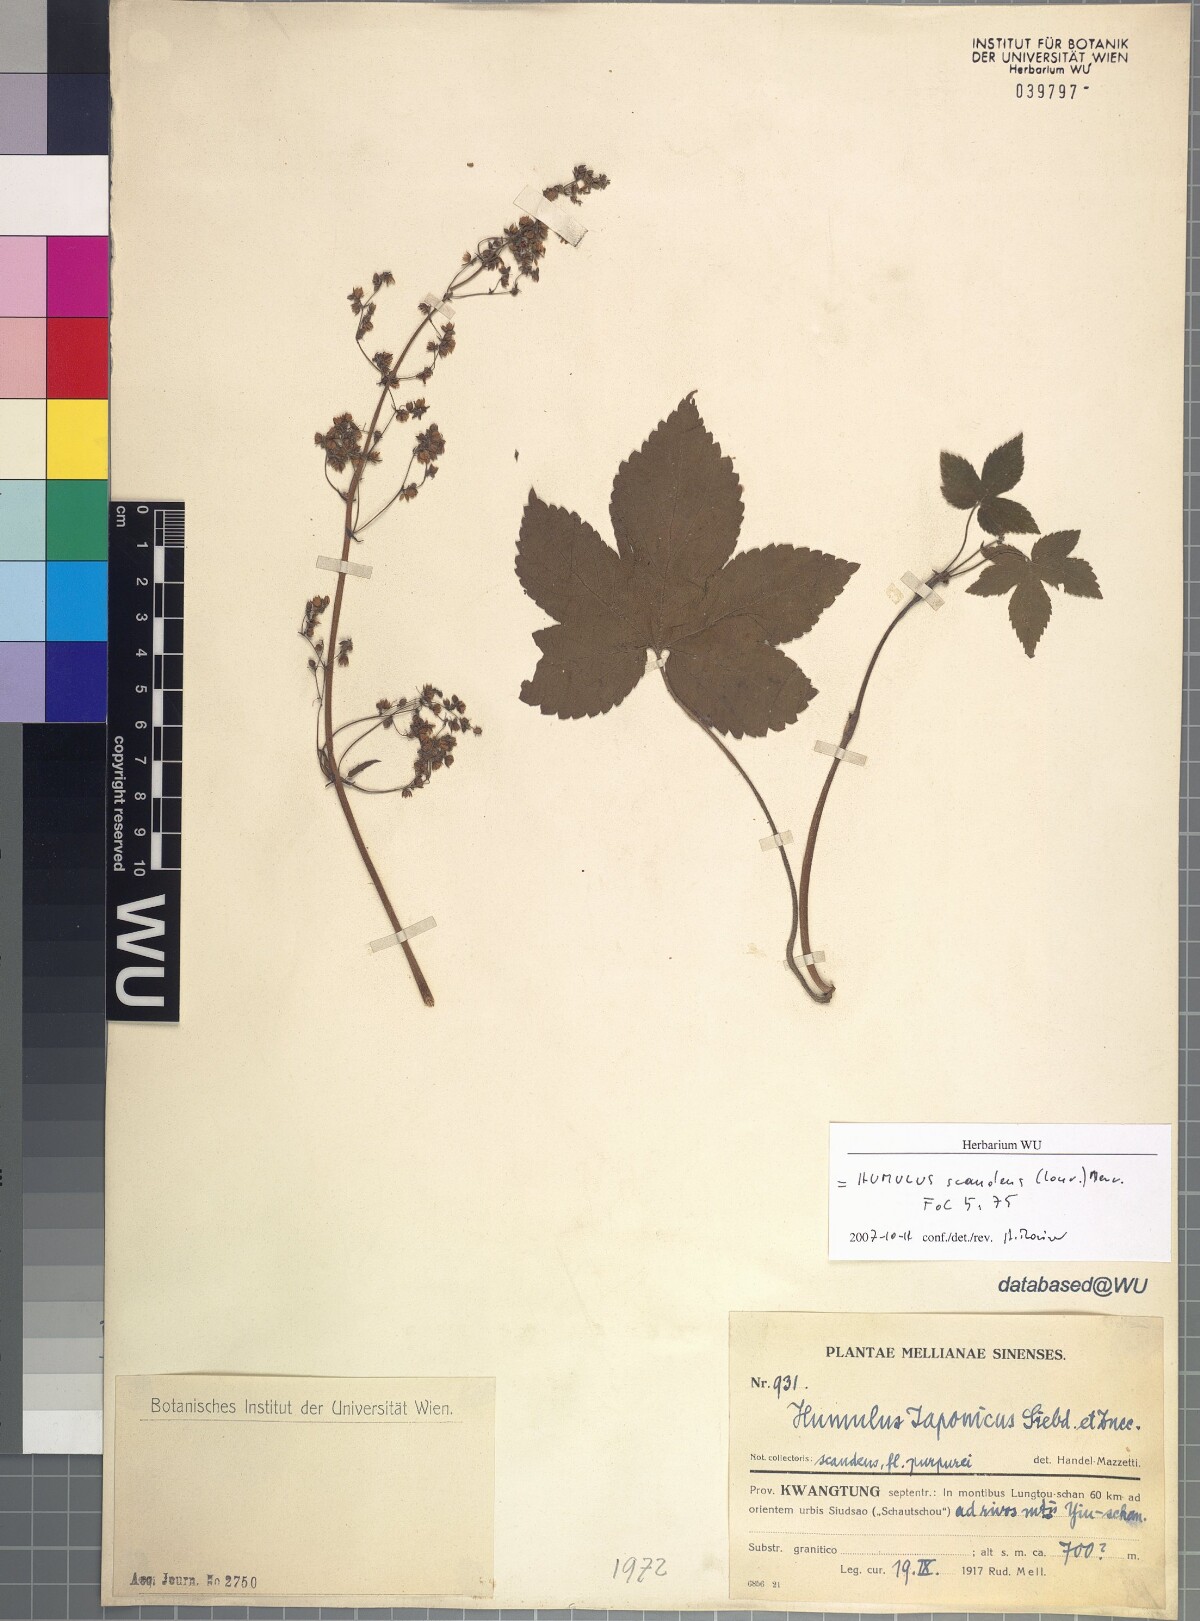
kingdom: Plantae
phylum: Tracheophyta
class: Magnoliopsida
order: Rosales
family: Cannabaceae
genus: Humulus
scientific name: Humulus scandens
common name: Japanese hop
